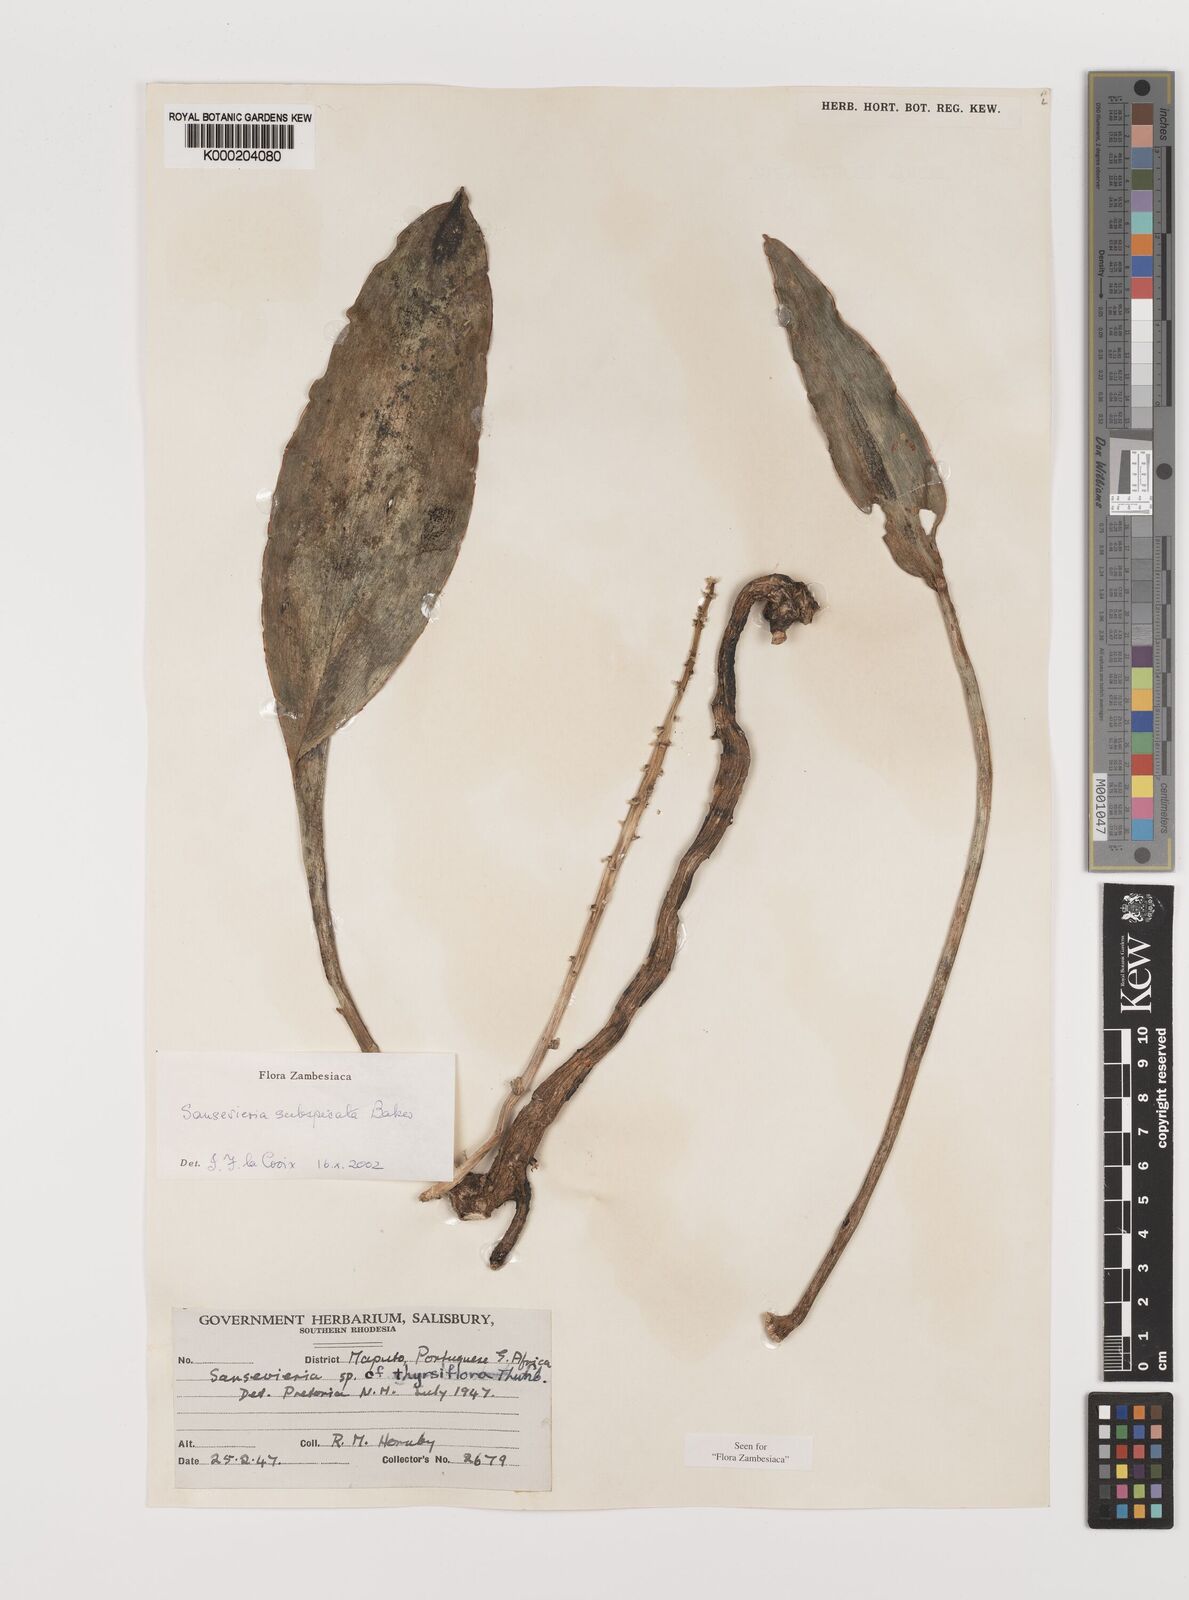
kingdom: Plantae
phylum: Tracheophyta
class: Liliopsida
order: Asparagales
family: Asparagaceae
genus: Dracaena
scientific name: Dracaena subspicata
